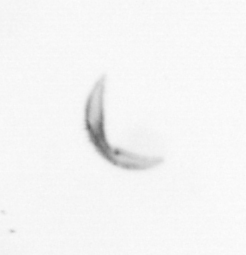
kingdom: Chromista
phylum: Ochrophyta
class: Bacillariophyceae
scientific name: Bacillariophyceae
